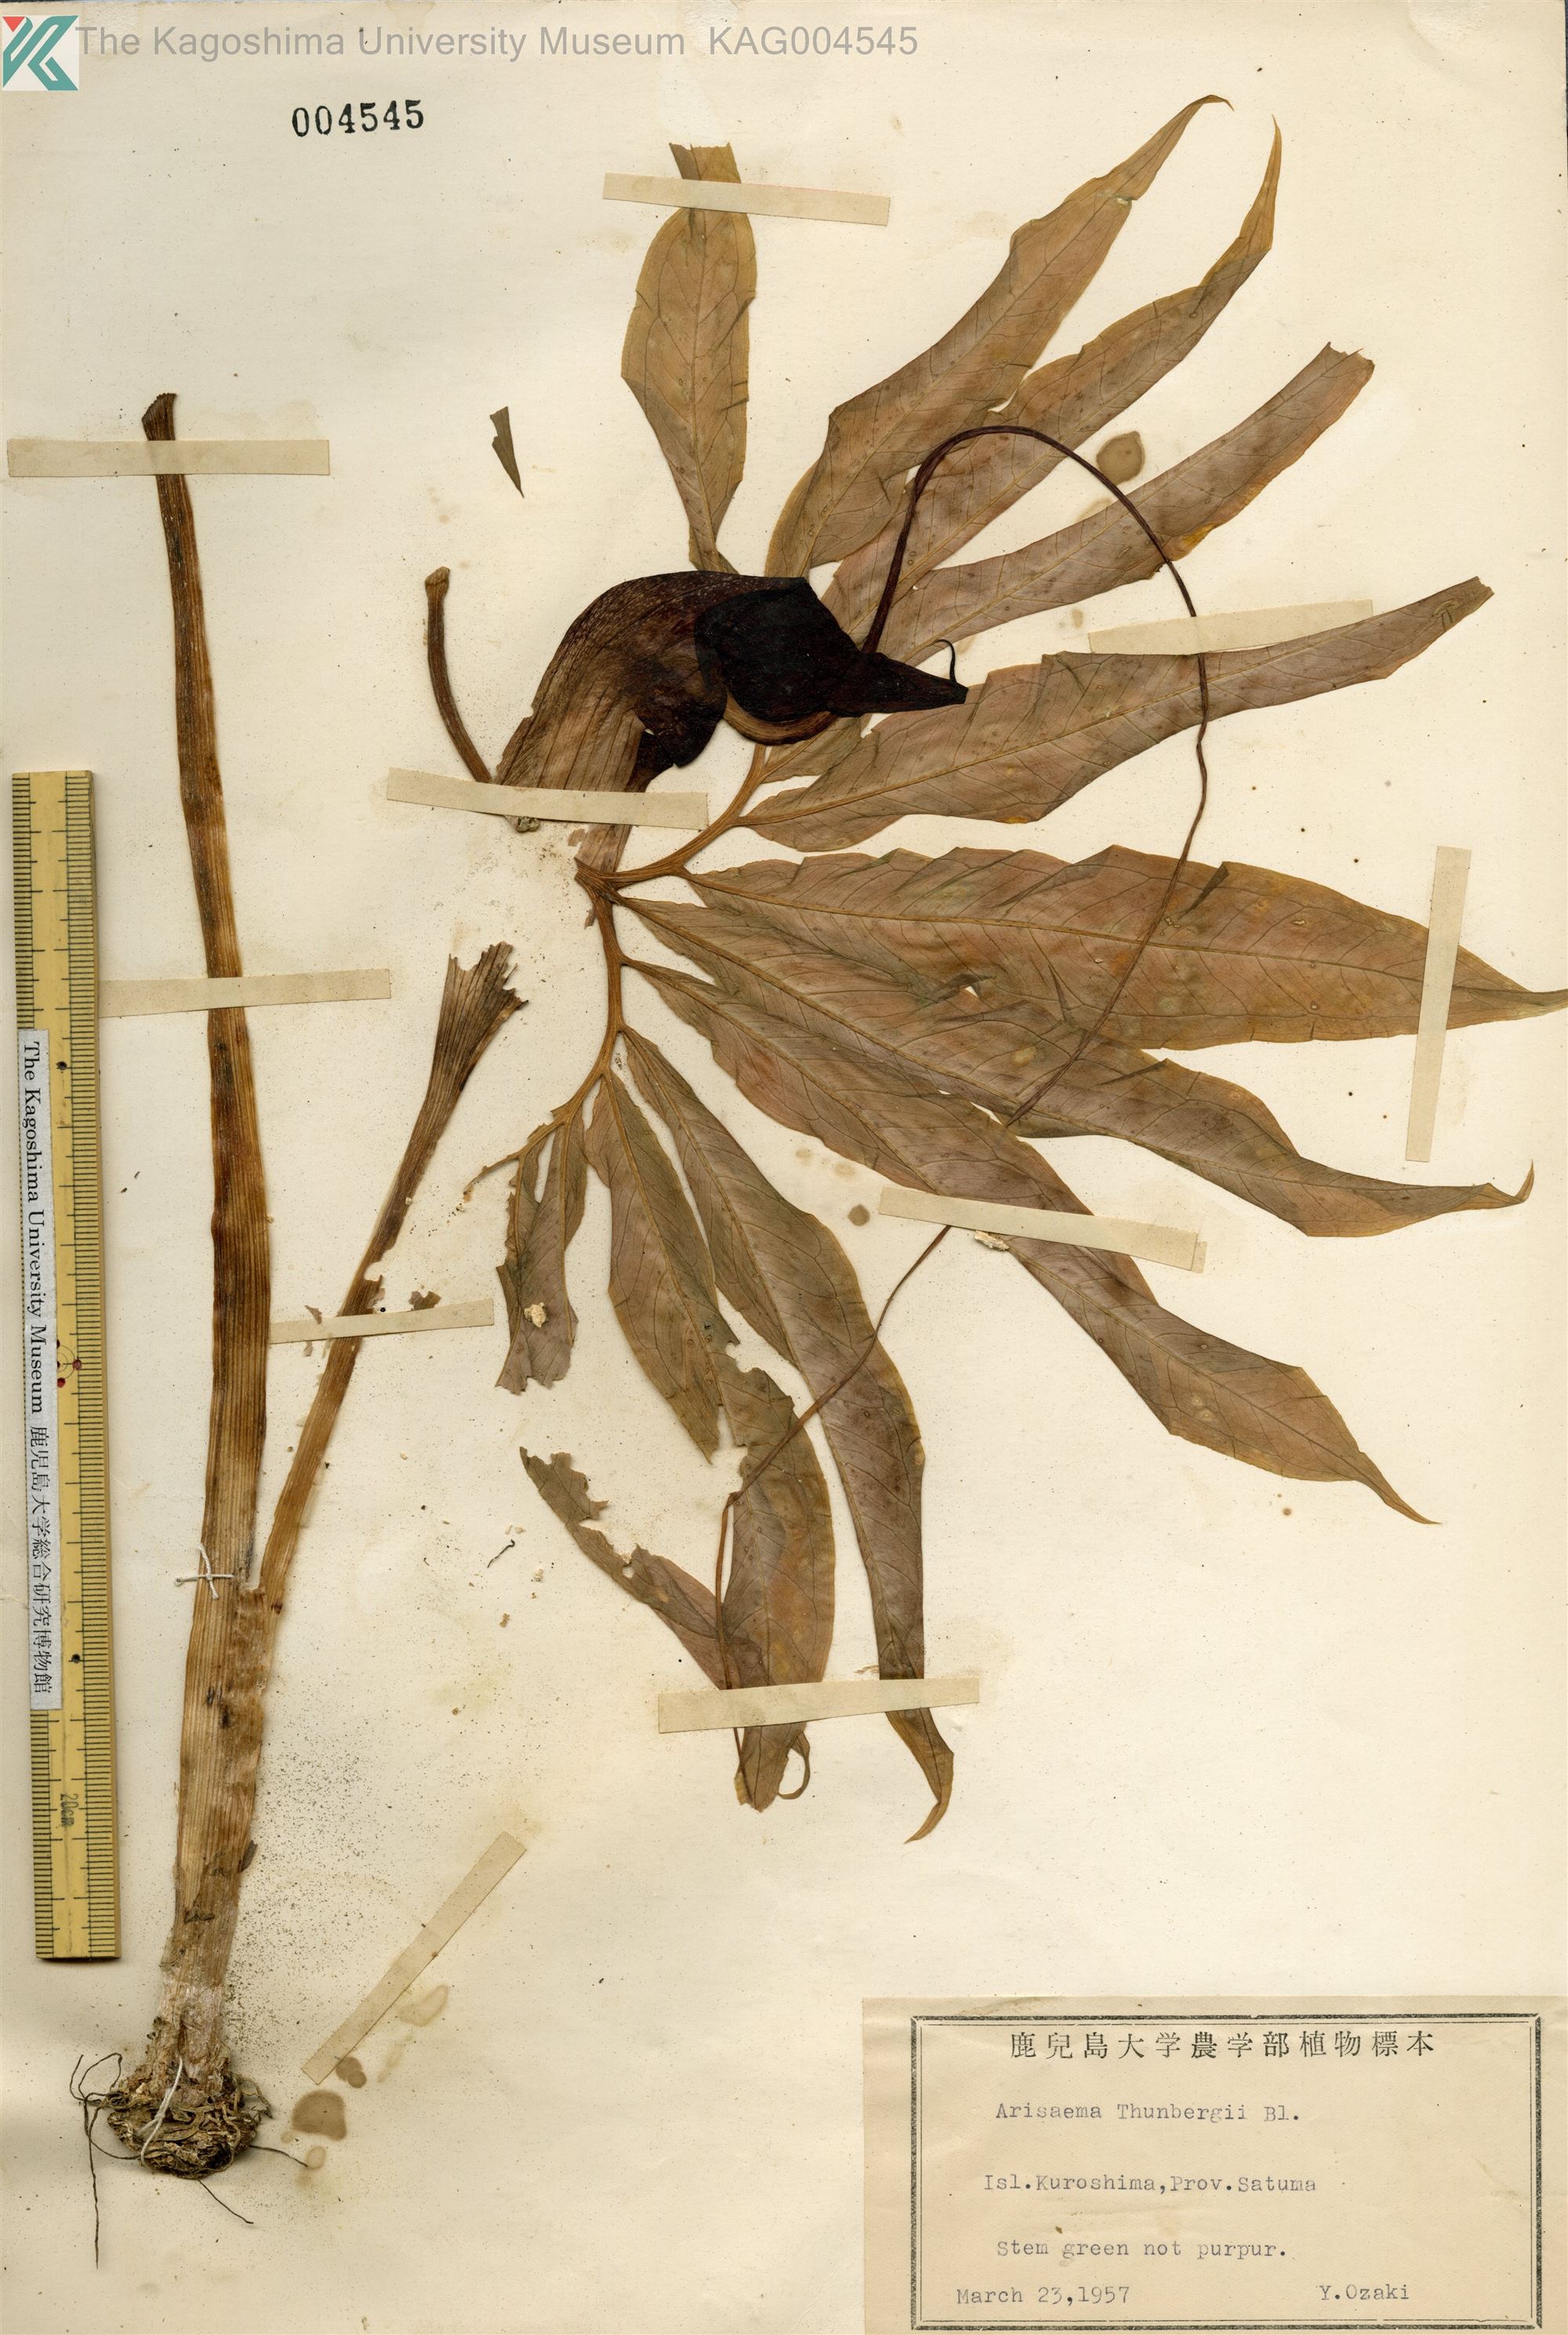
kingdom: Plantae
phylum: Tracheophyta
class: Liliopsida
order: Alismatales
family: Araceae
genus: Arisaema
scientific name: Arisaema thunbergii
